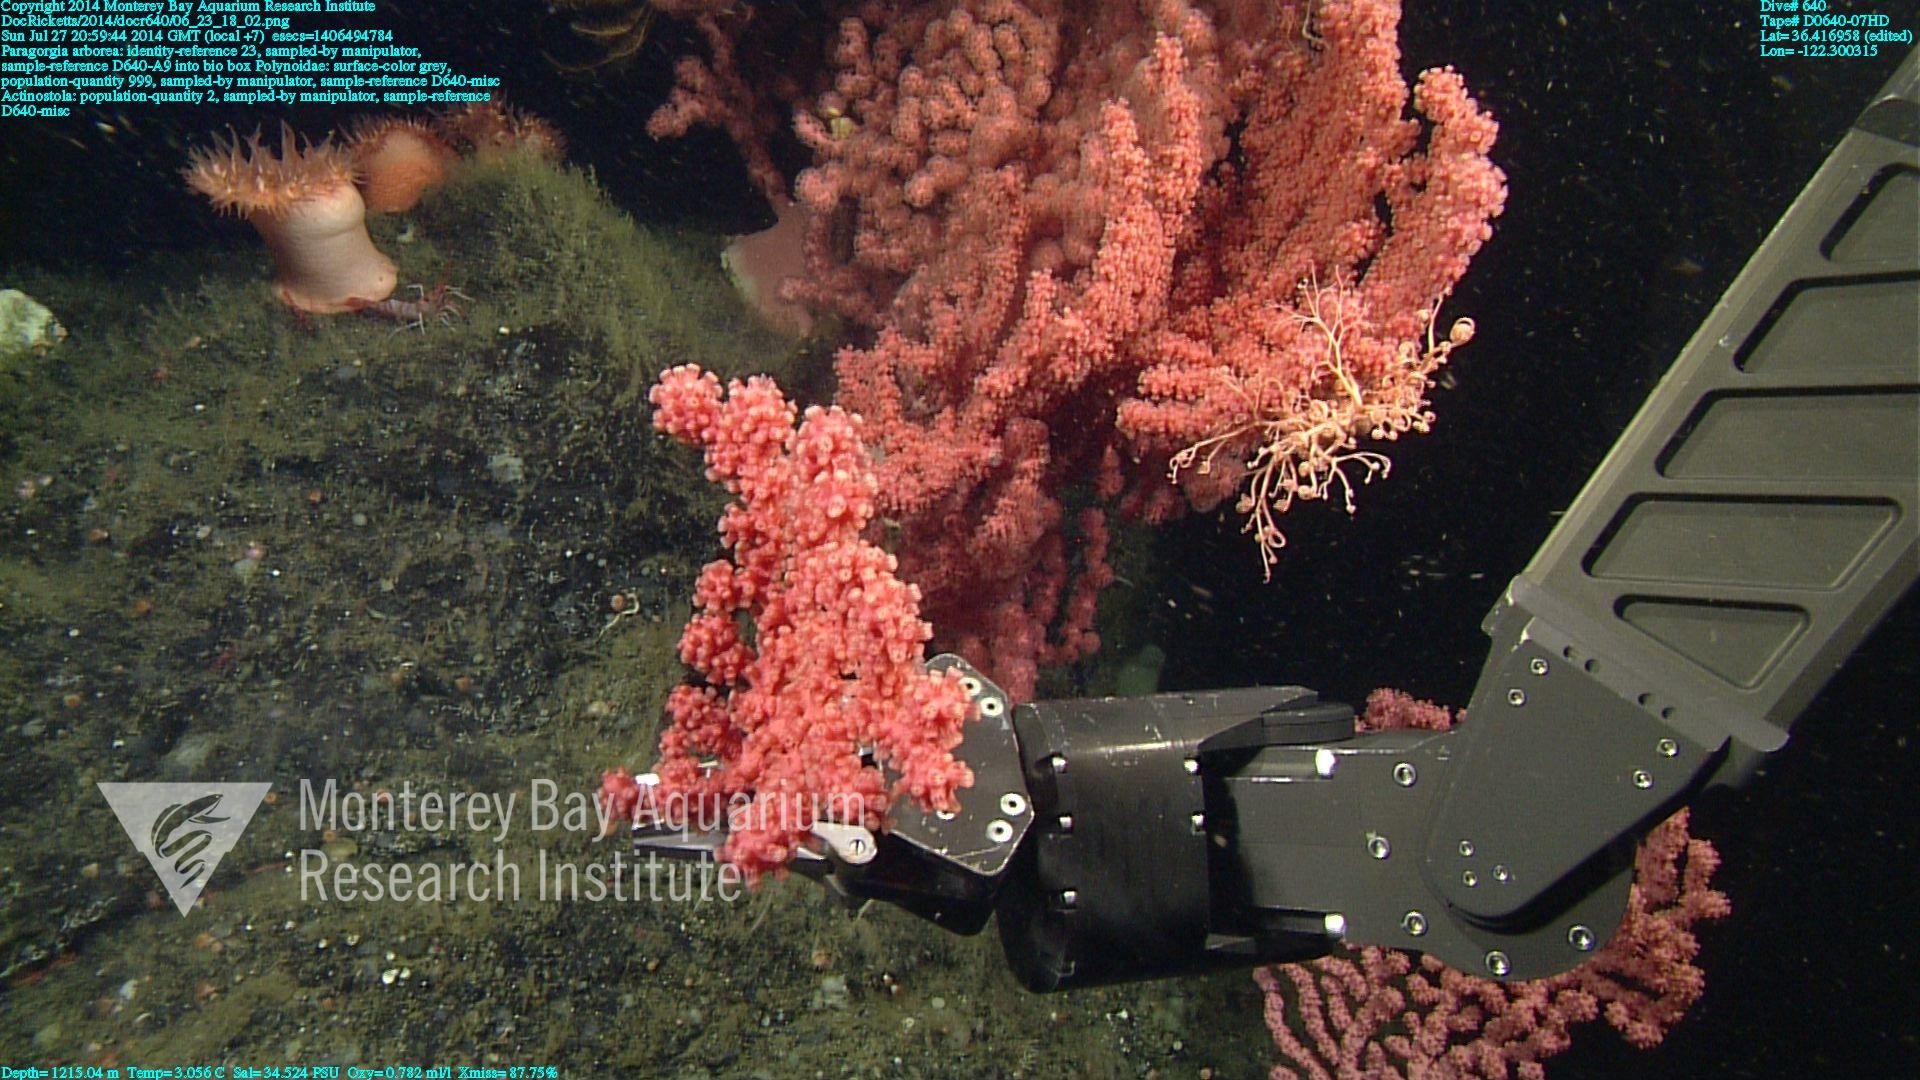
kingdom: Animalia
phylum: Cnidaria
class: Anthozoa
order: Scleralcyonacea
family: Coralliidae
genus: Paragorgia
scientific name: Paragorgia arborea
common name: Bubble gum coral
